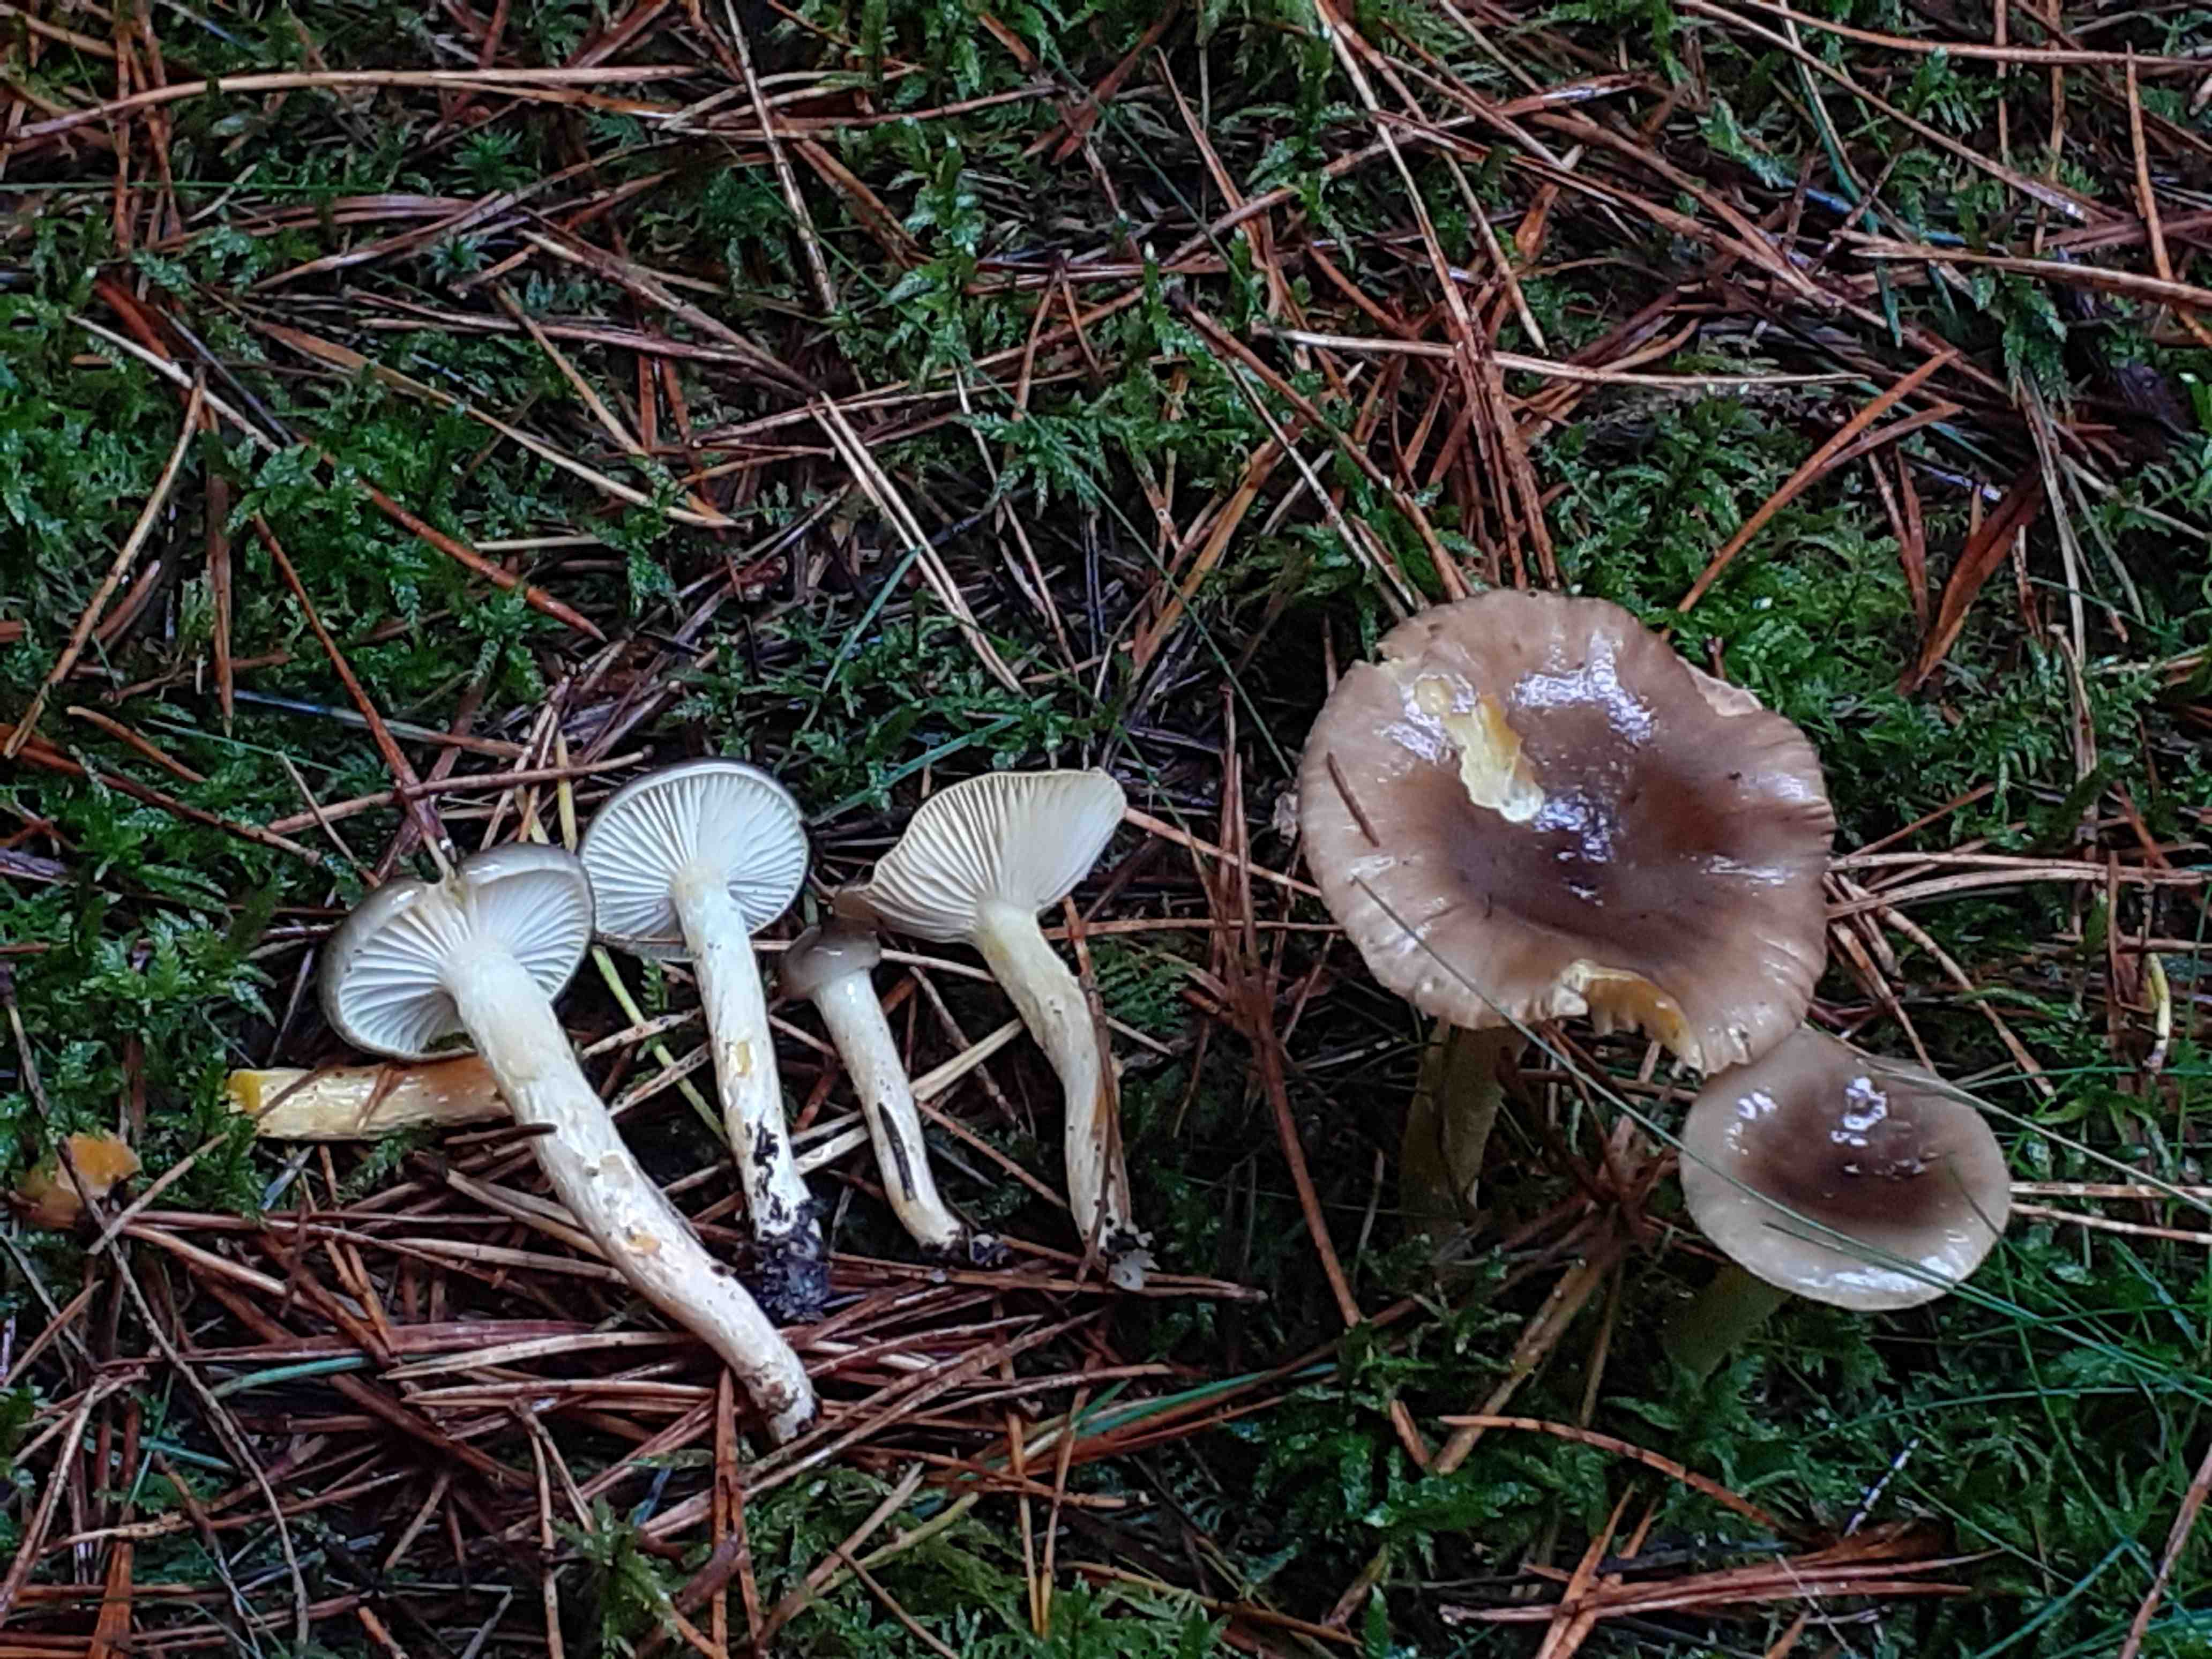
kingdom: Fungi
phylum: Basidiomycota
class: Agaricomycetes
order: Agaricales
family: Hygrophoraceae
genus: Hygrophorus
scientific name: Hygrophorus hypothejus
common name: frost-sneglehat
